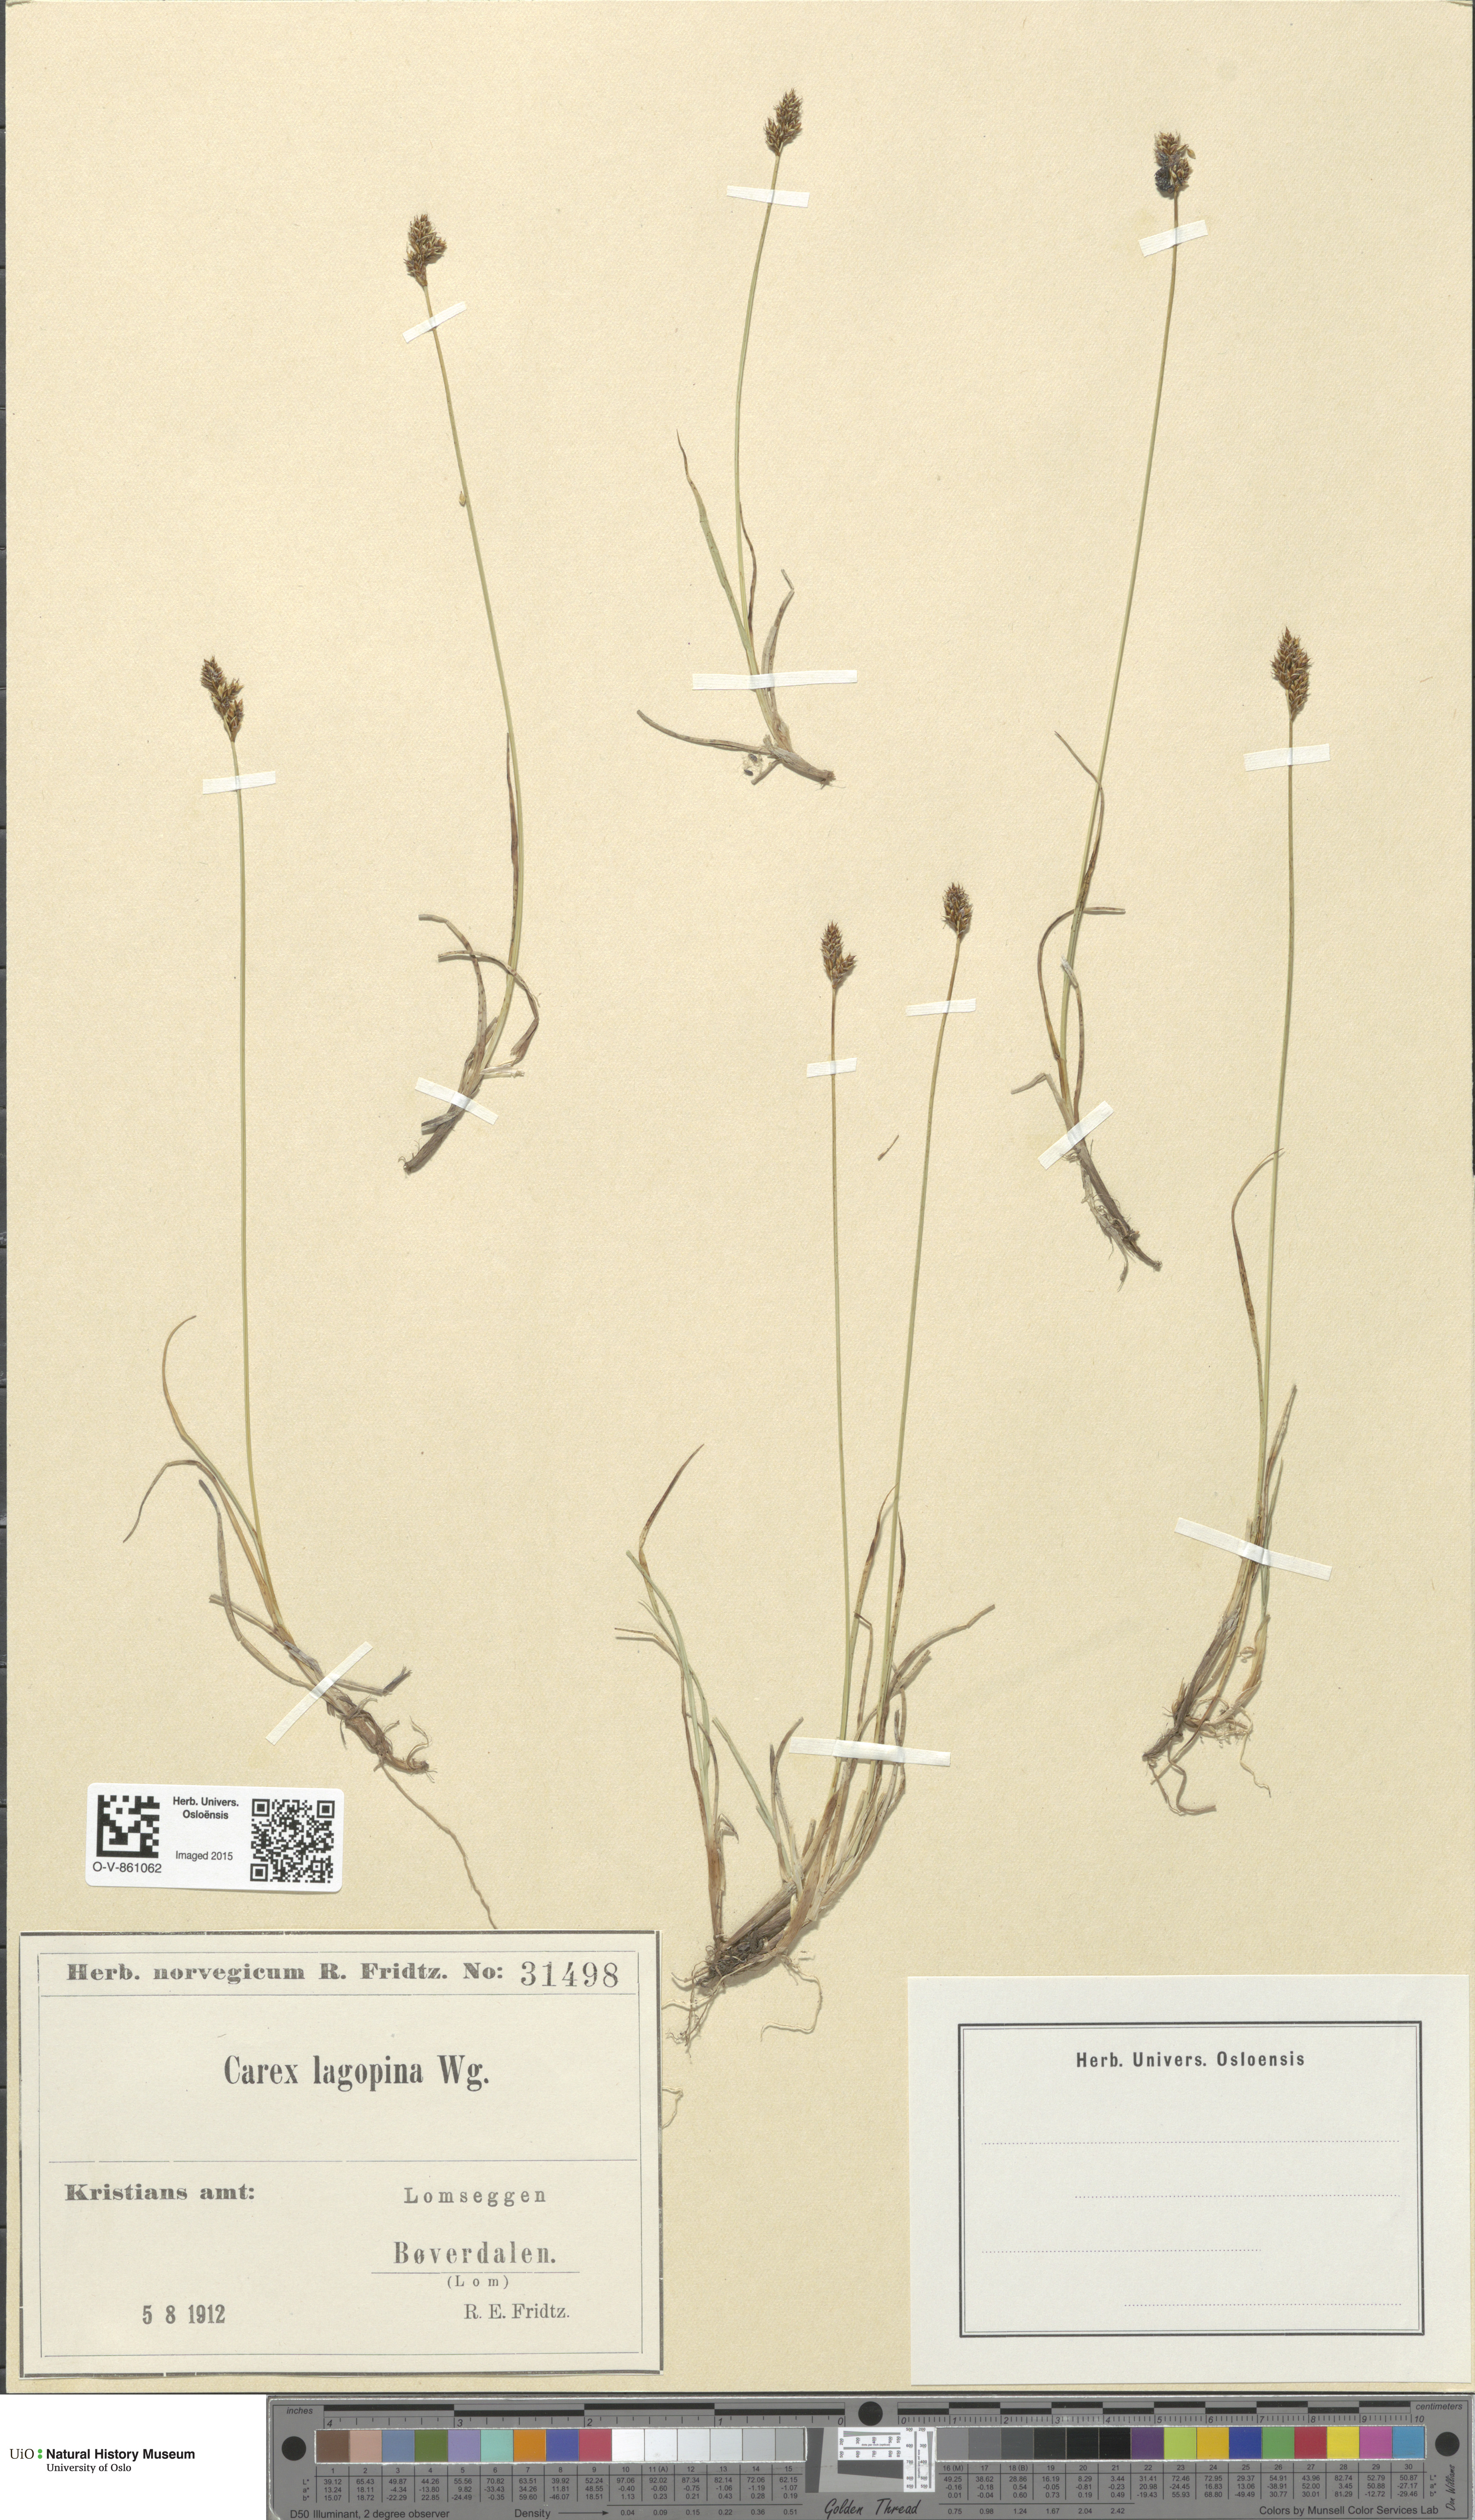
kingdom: Plantae
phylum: Tracheophyta
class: Liliopsida
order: Poales
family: Cyperaceae
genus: Carex
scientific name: Carex lachenalii
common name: Hare's-foot sedge
